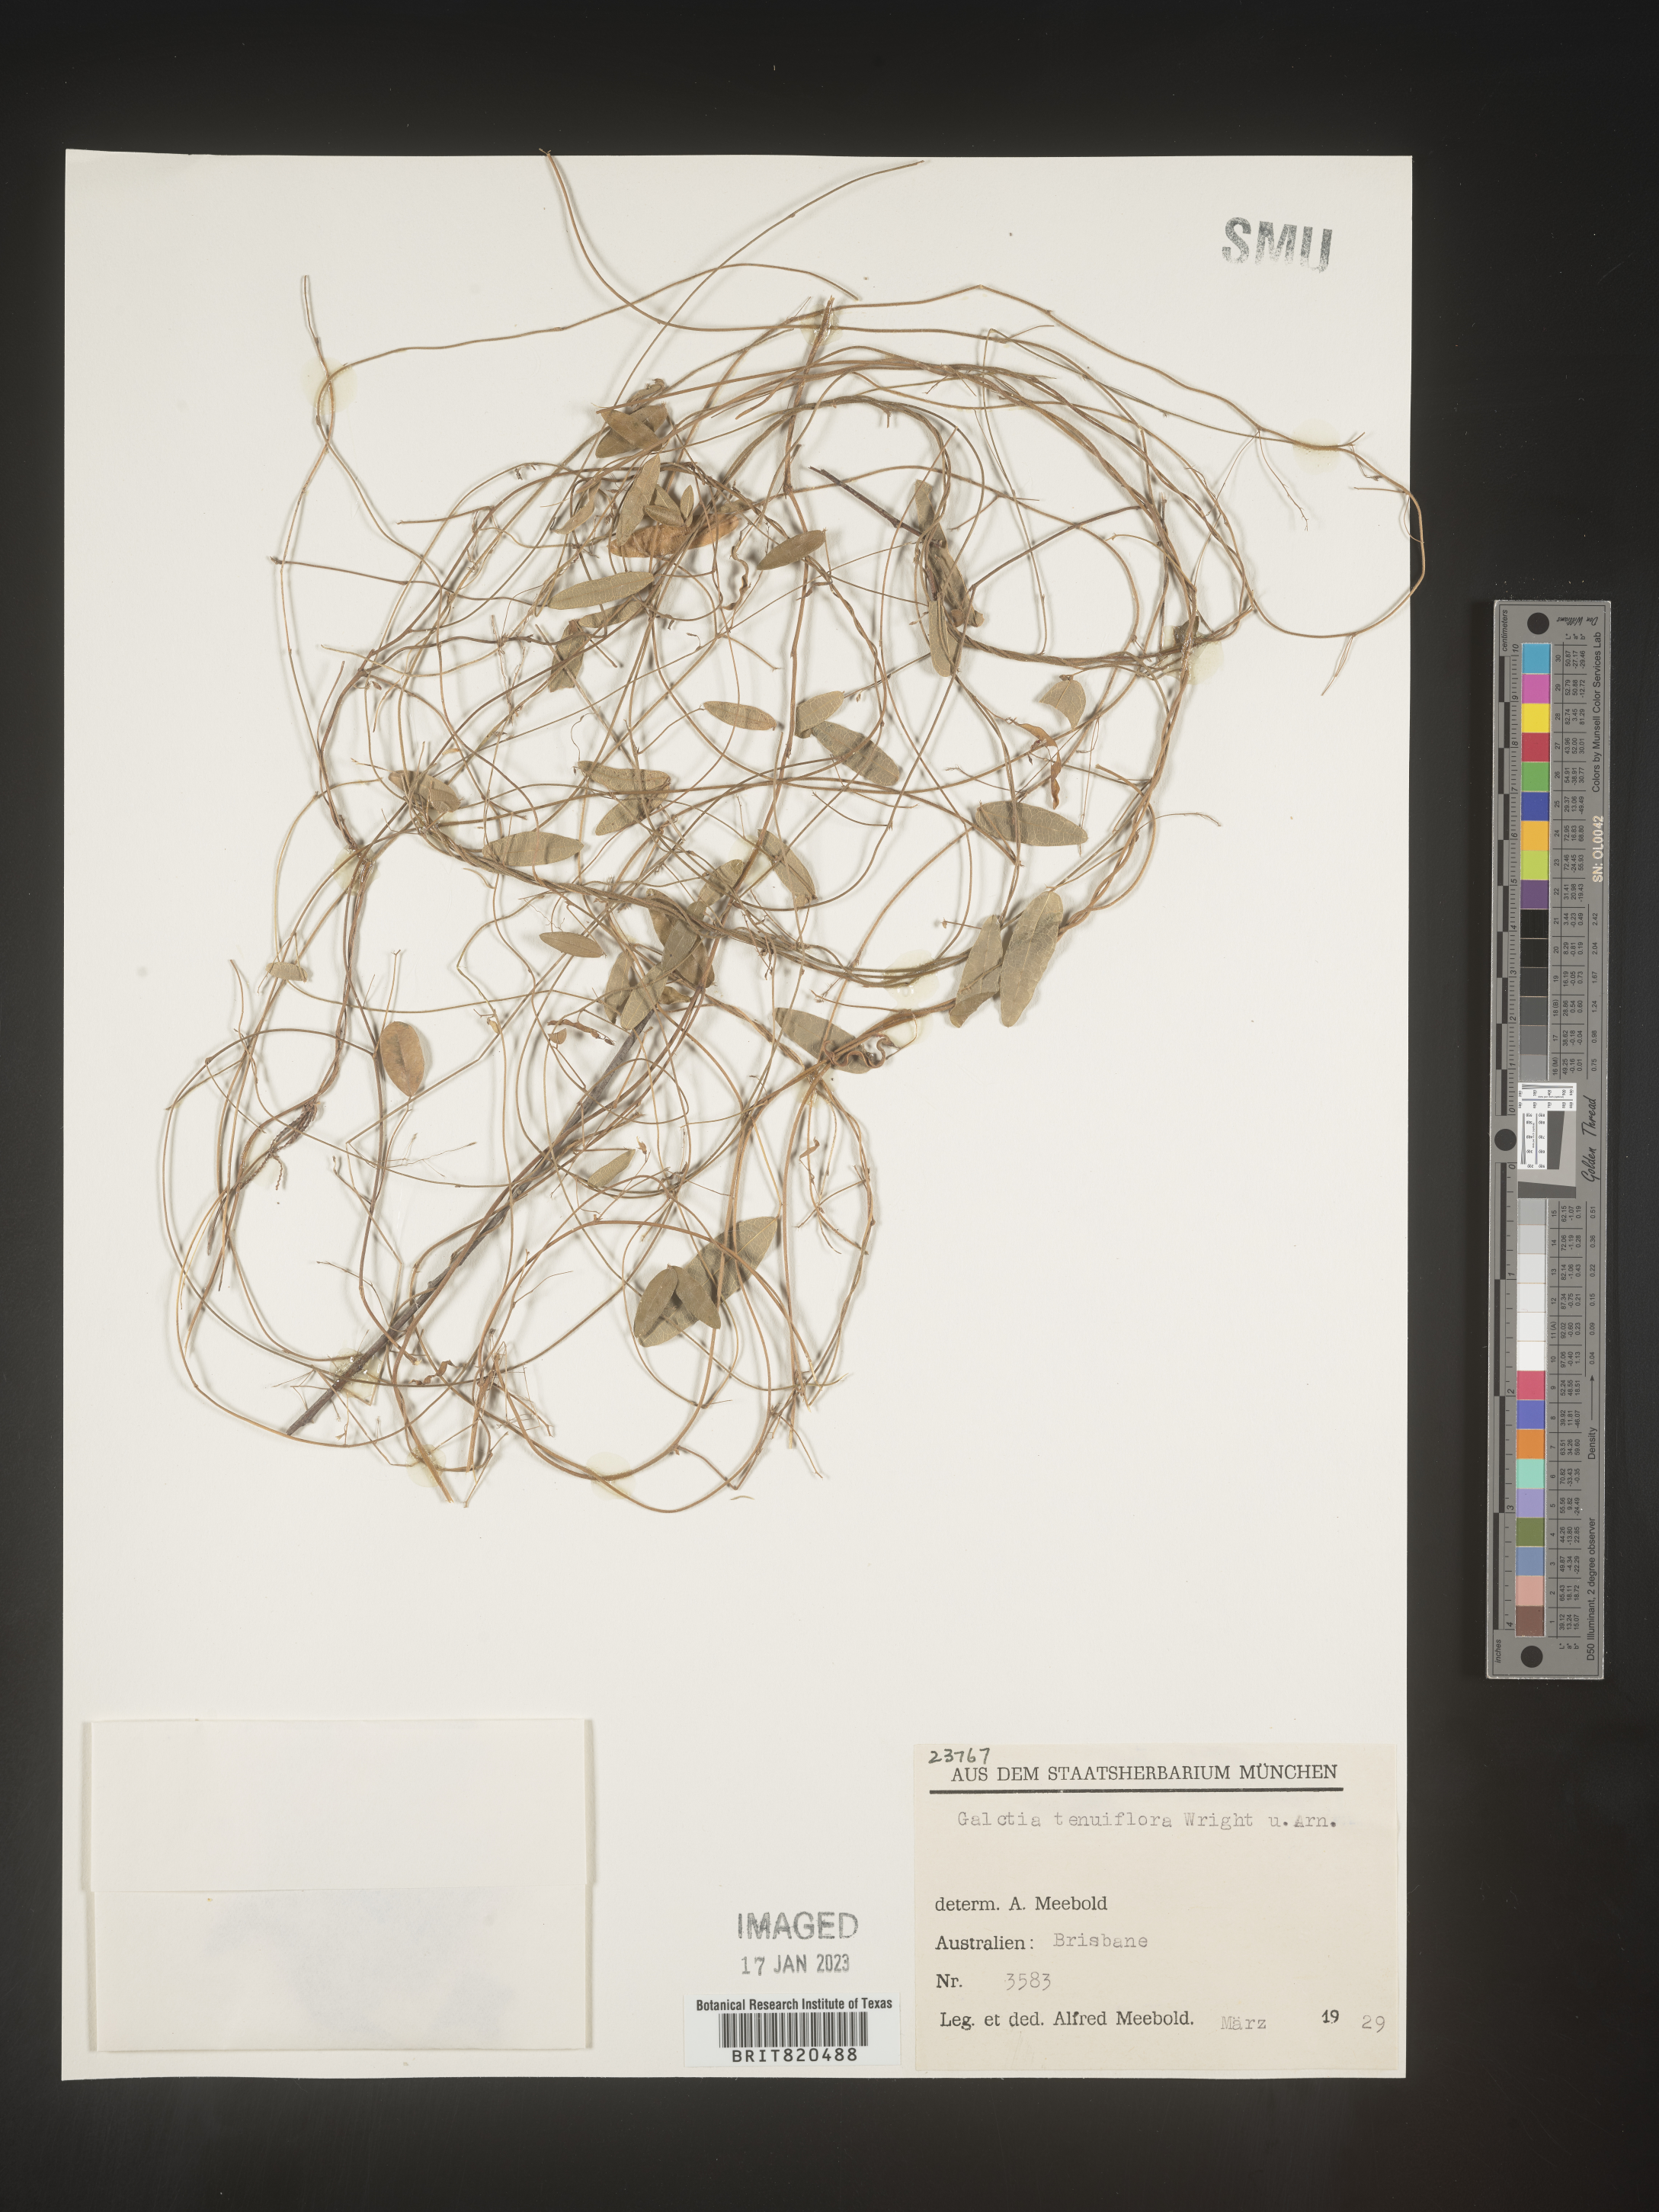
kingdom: Plantae
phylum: Tracheophyta
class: Magnoliopsida
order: Fabales
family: Fabaceae
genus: Galactia
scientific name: Galactia
